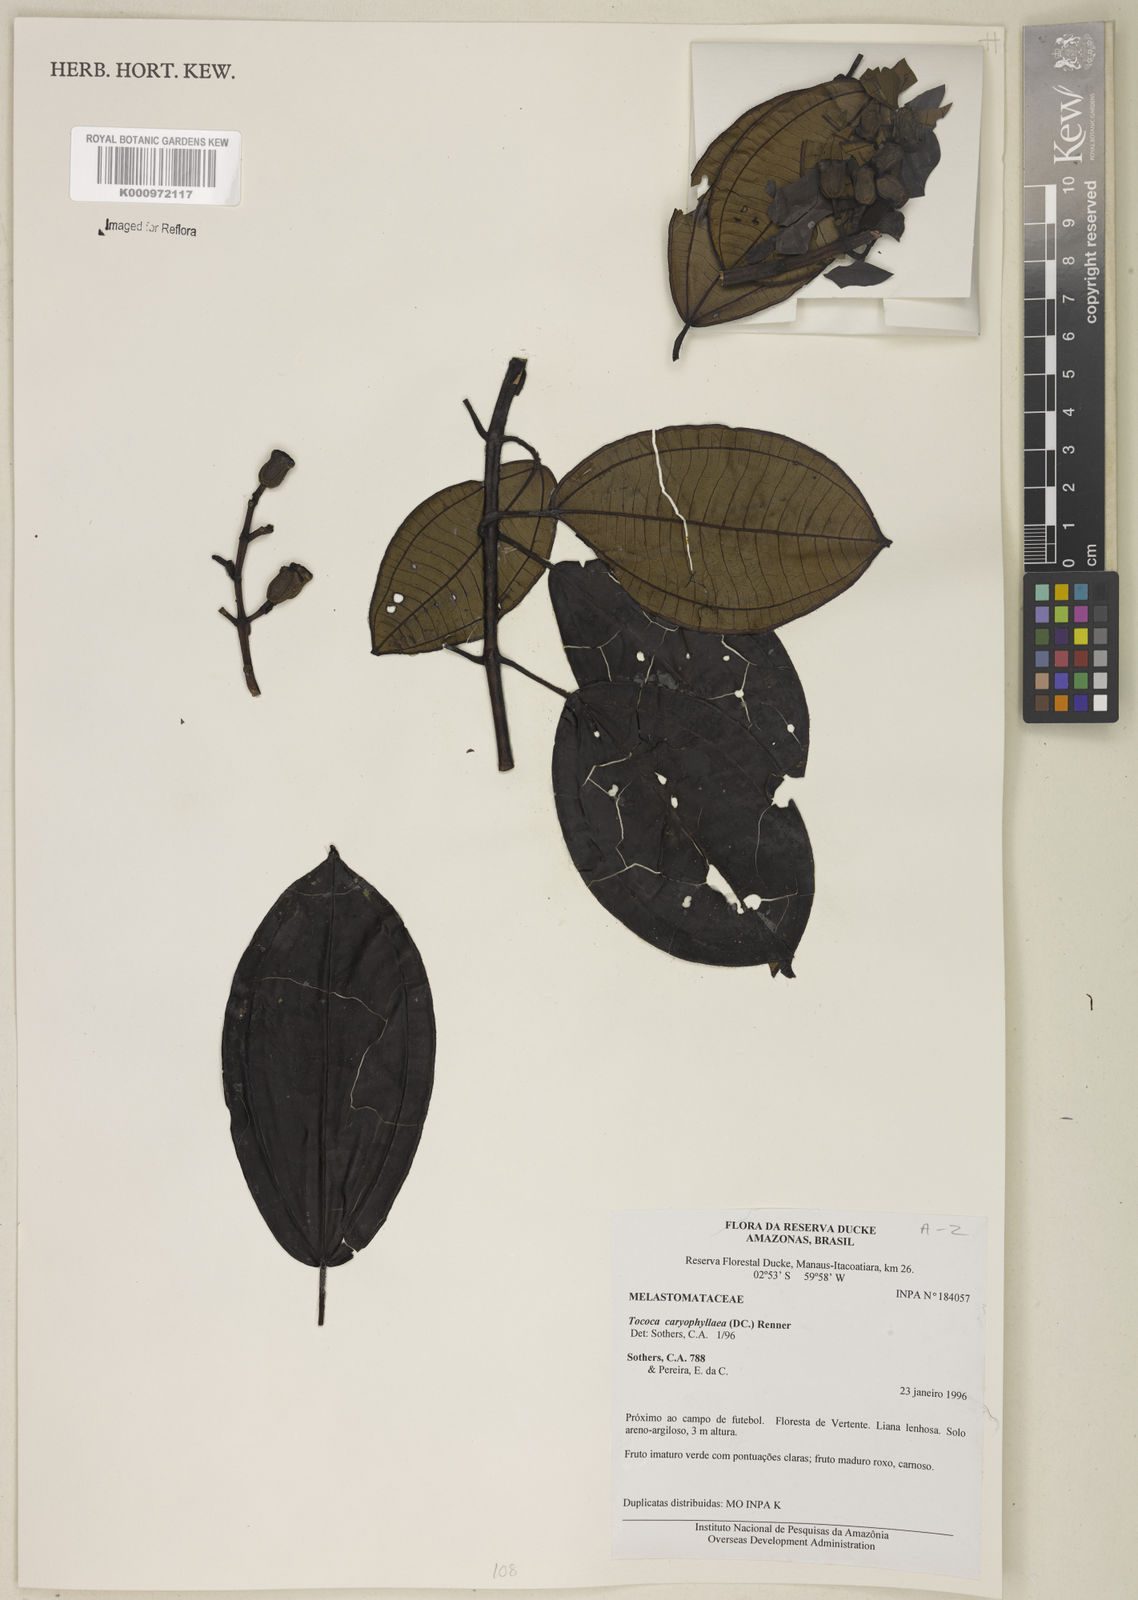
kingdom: Plantae
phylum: Tracheophyta
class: Magnoliopsida
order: Myrtales
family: Melastomataceae
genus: Miconia
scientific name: Miconia caryophyllacea
